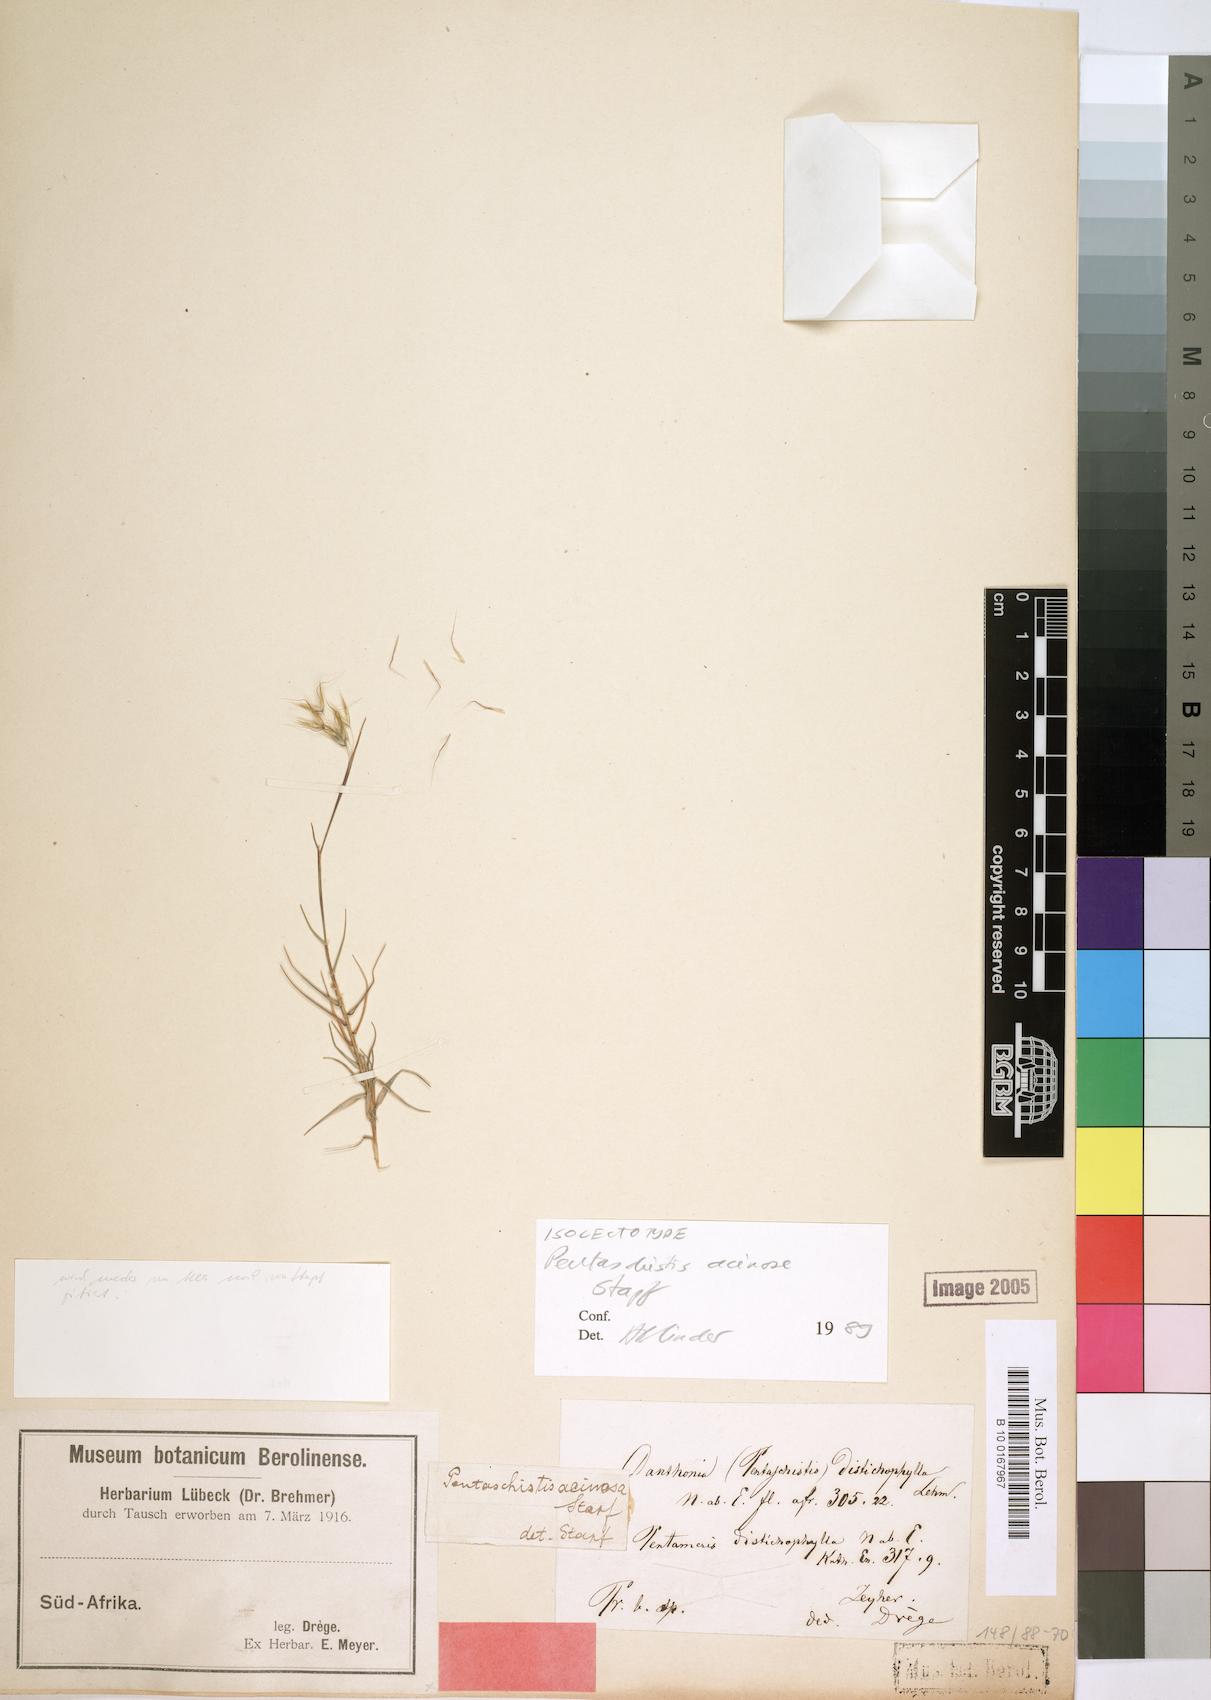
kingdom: Plantae
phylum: Tracheophyta
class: Liliopsida
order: Poales
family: Poaceae
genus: Pentameris
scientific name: Pentameris acinosa
